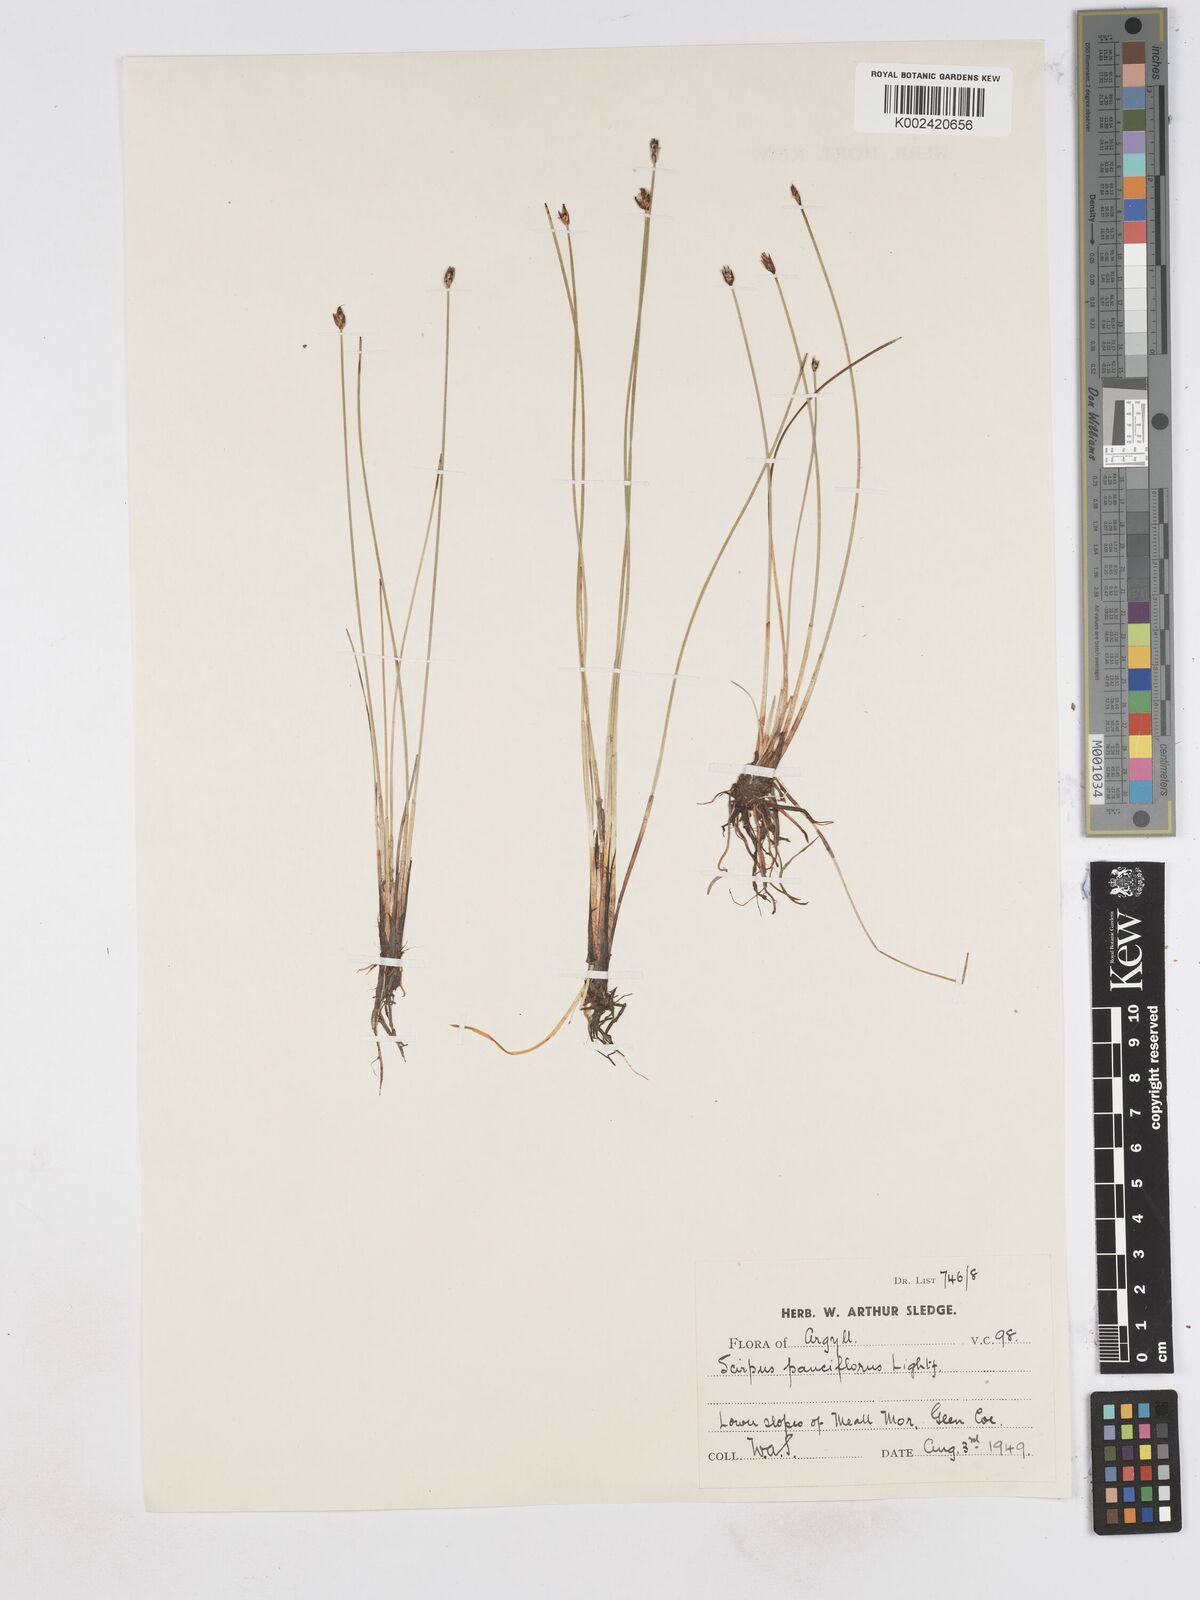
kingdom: Plantae
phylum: Tracheophyta
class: Liliopsida
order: Poales
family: Cyperaceae
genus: Eleocharis
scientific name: Eleocharis quinqueflora
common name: Few-flowered spike-rush
